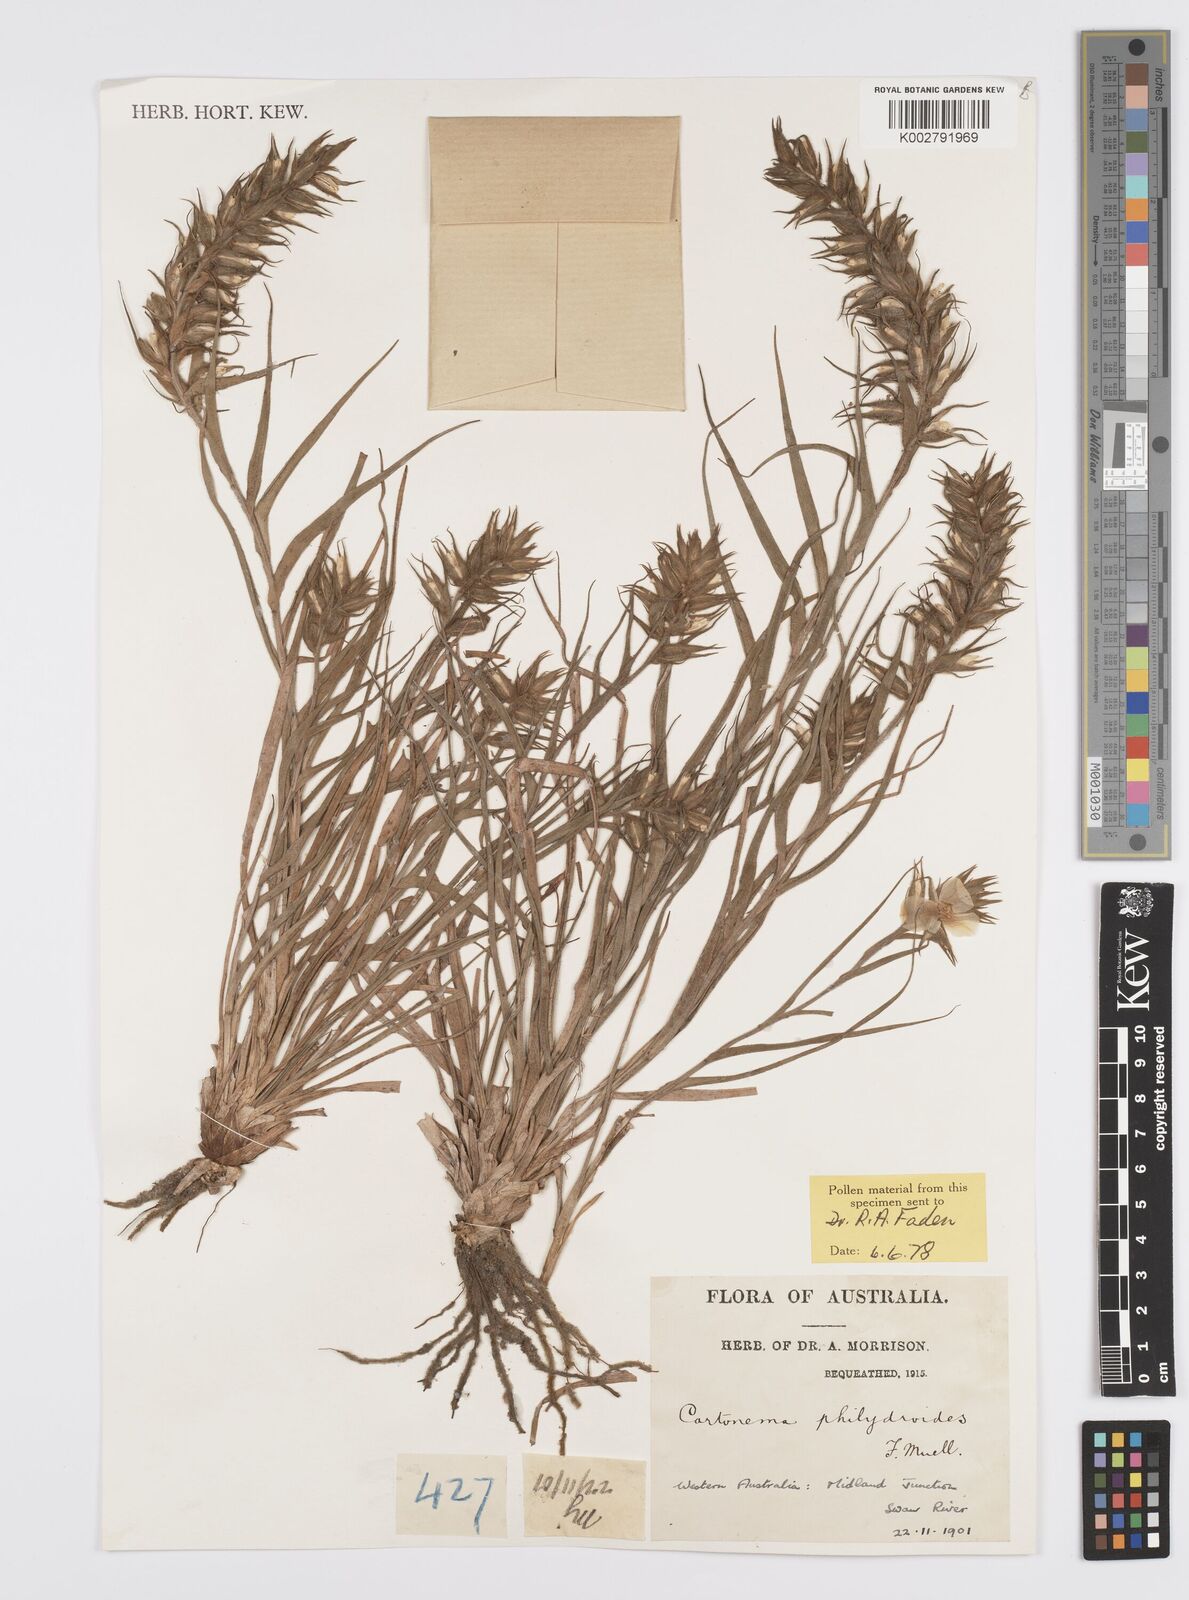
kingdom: Plantae
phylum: Tracheophyta
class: Liliopsida
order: Commelinales
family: Commelinaceae
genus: Cartonema
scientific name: Cartonema philydroides
